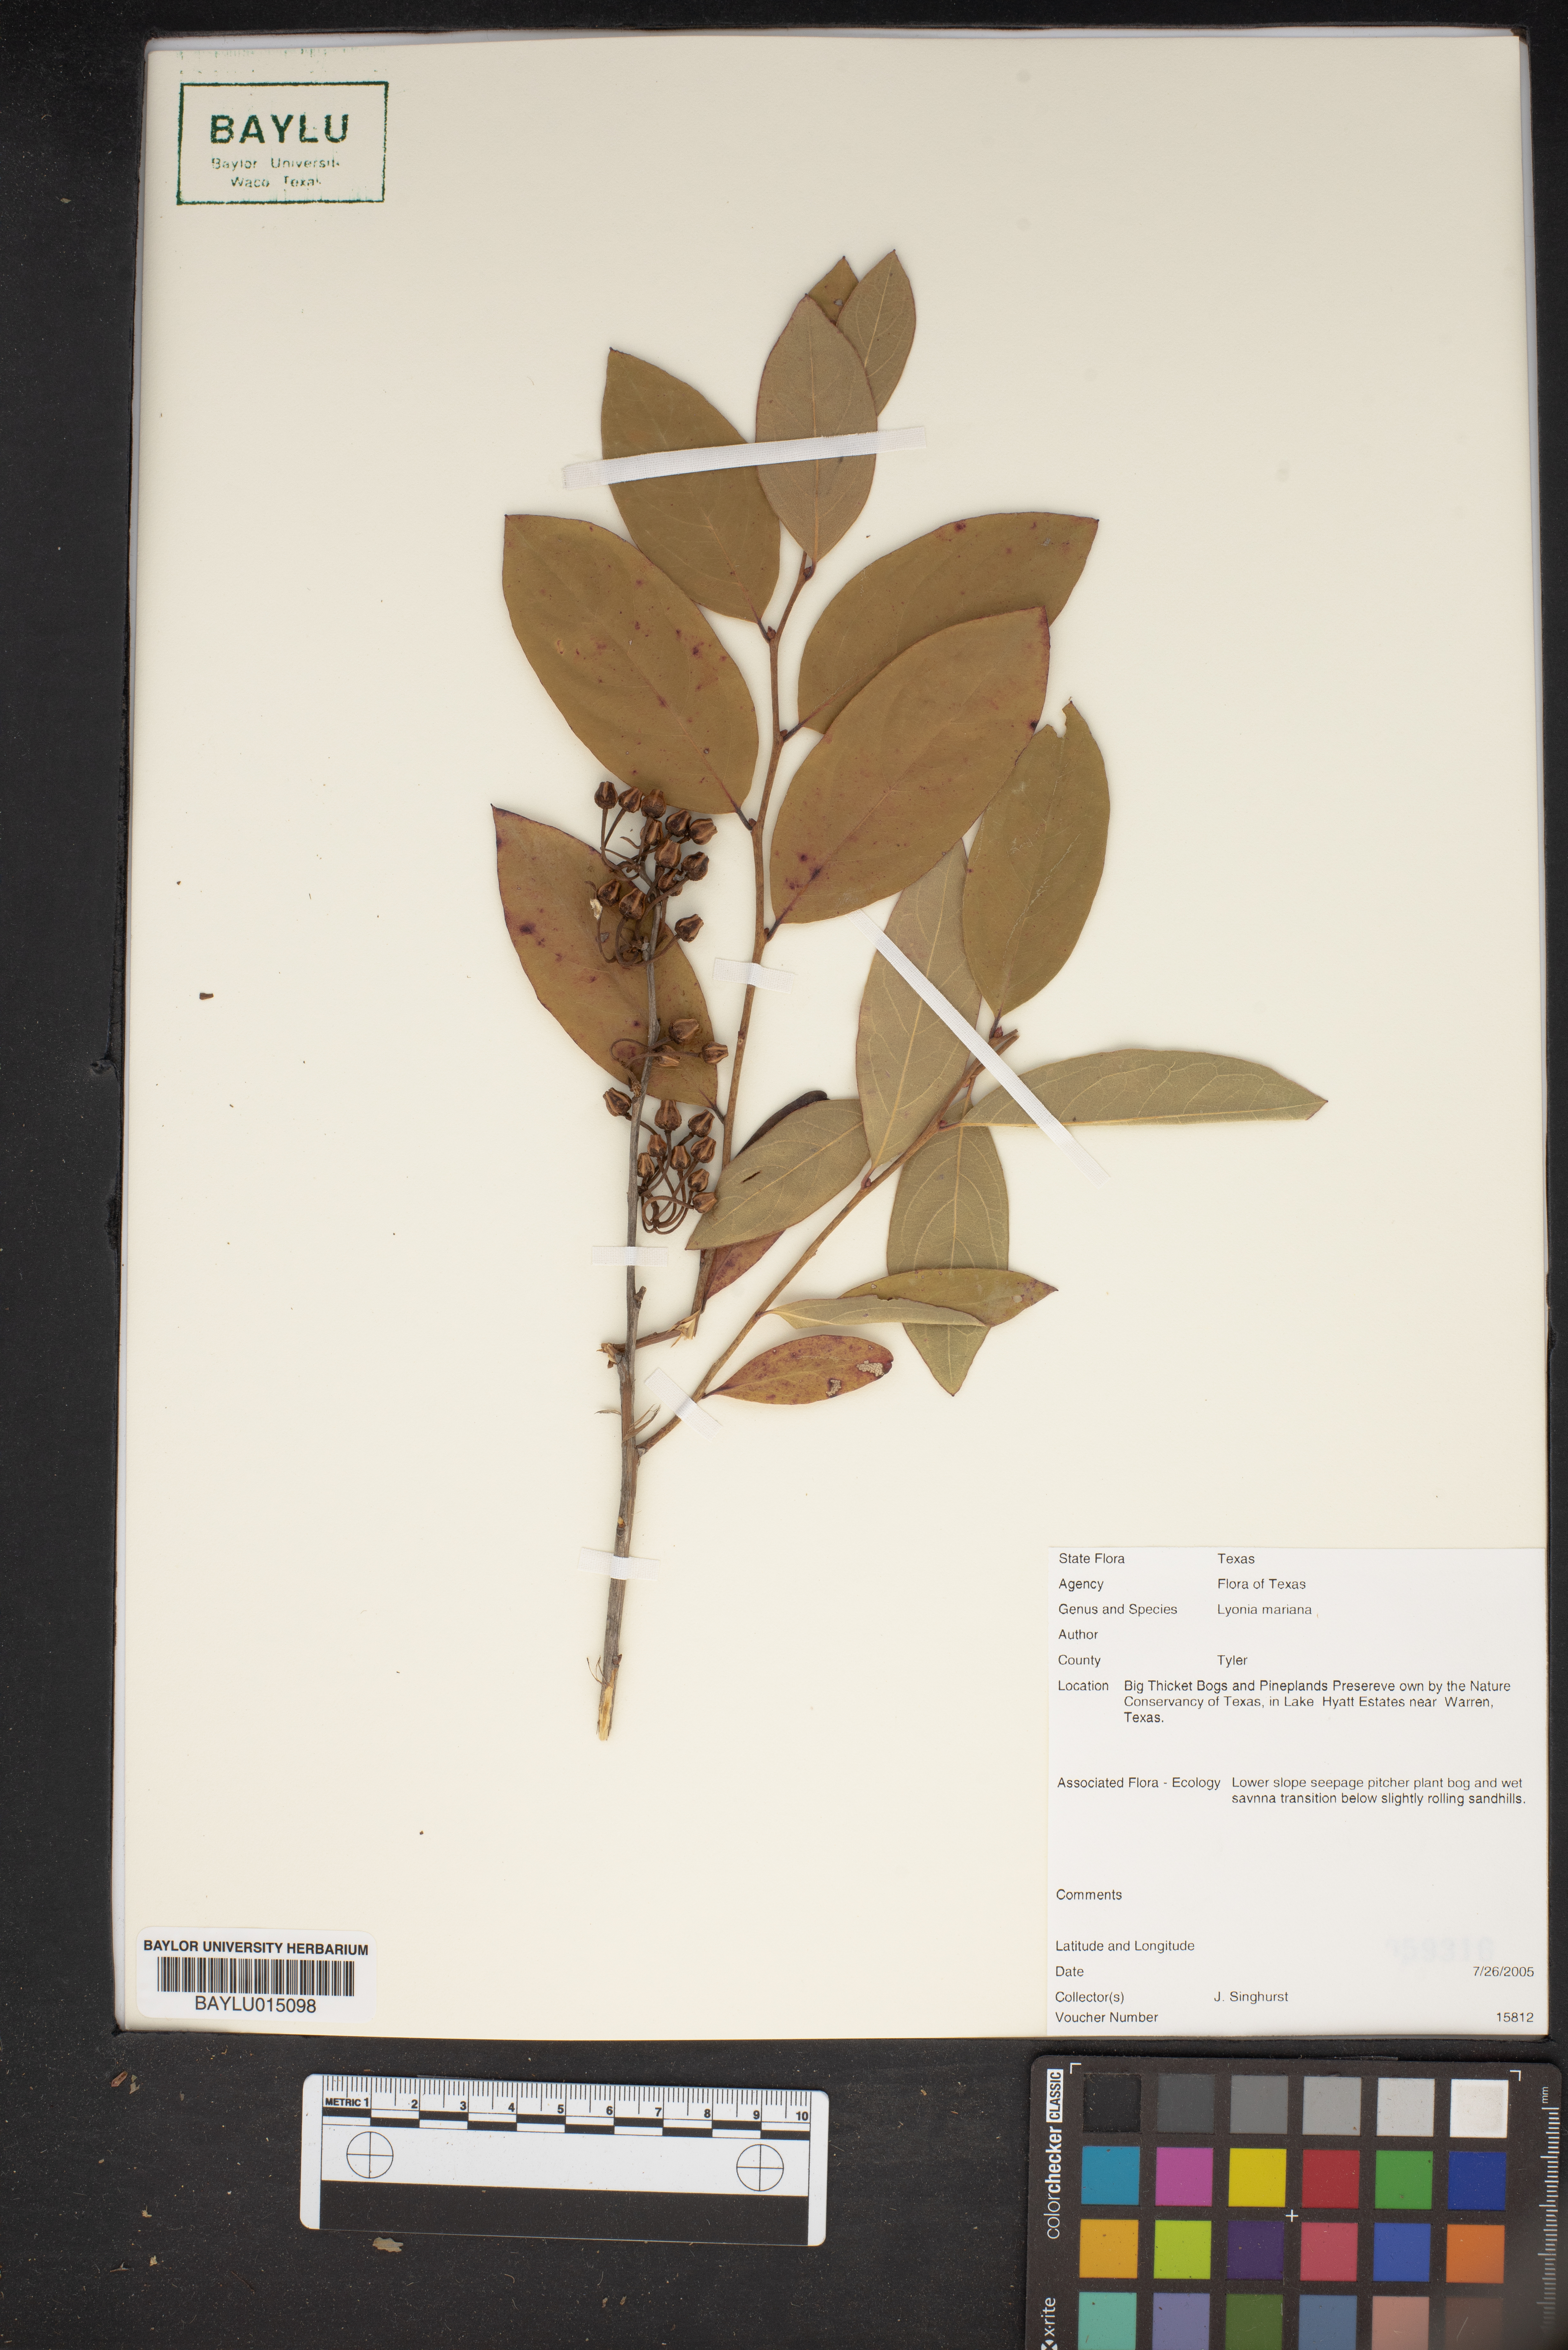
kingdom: Plantae
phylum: Tracheophyta
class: Magnoliopsida
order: Ericales
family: Ericaceae
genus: Lyonia
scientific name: Lyonia mariana
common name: Staggerbush
